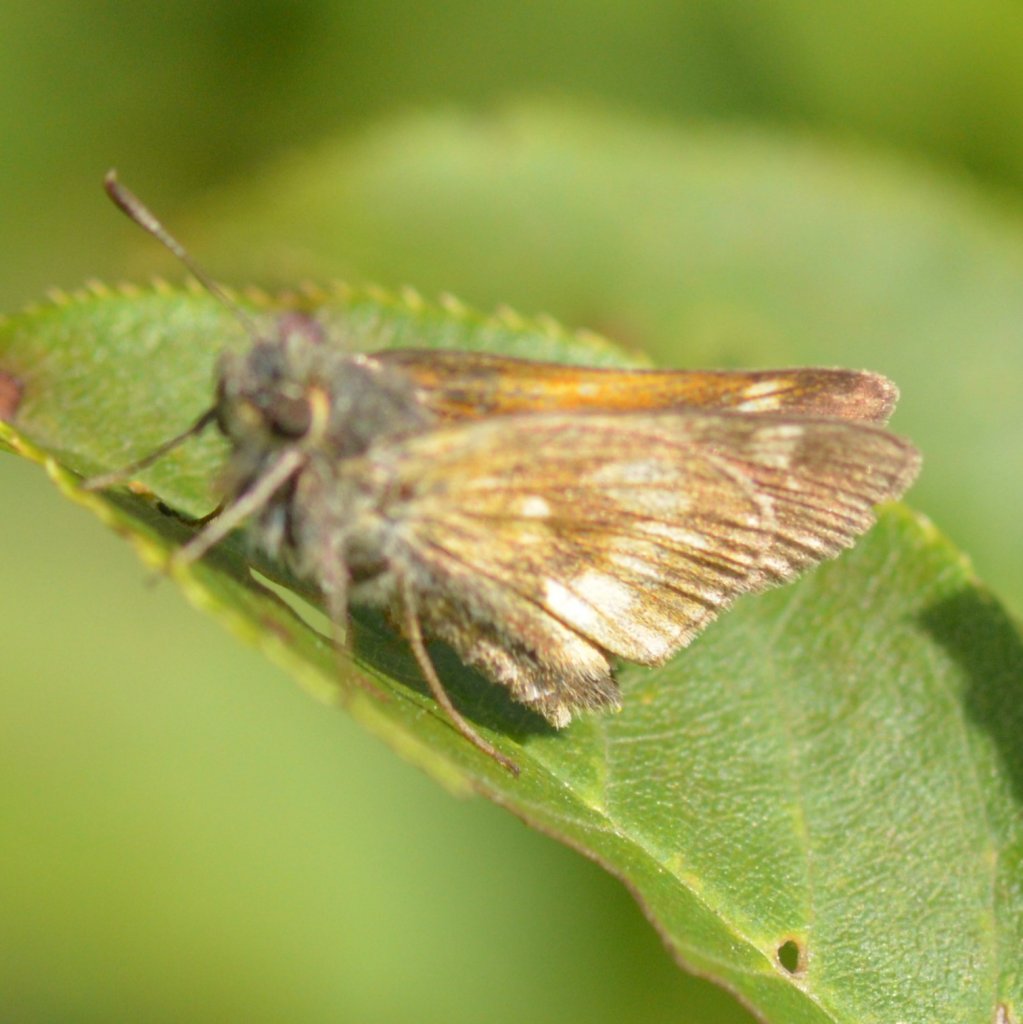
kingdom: Animalia
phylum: Arthropoda
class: Insecta
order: Lepidoptera
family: Hesperiidae
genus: Polites
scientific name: Polites
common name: Long Dash Skipper
